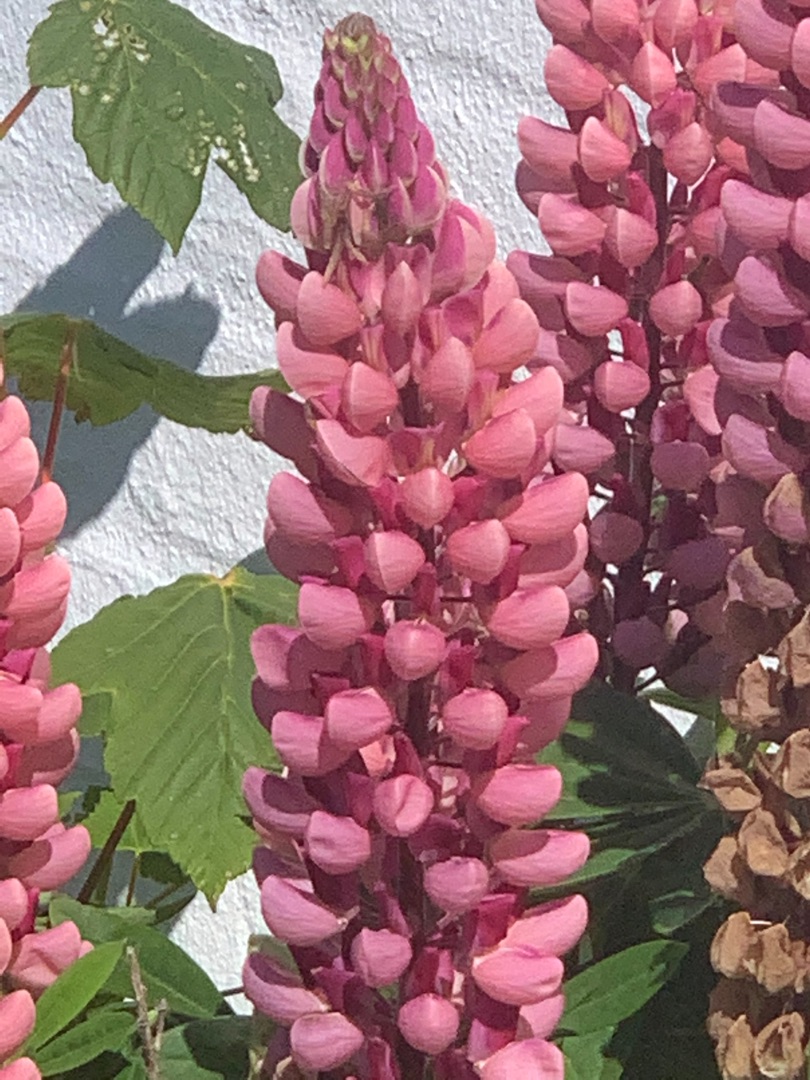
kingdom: Plantae
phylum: Tracheophyta
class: Magnoliopsida
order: Fabales
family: Fabaceae
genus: Lupinus
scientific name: Lupinus polyphyllus
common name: Mangebladet lupin
